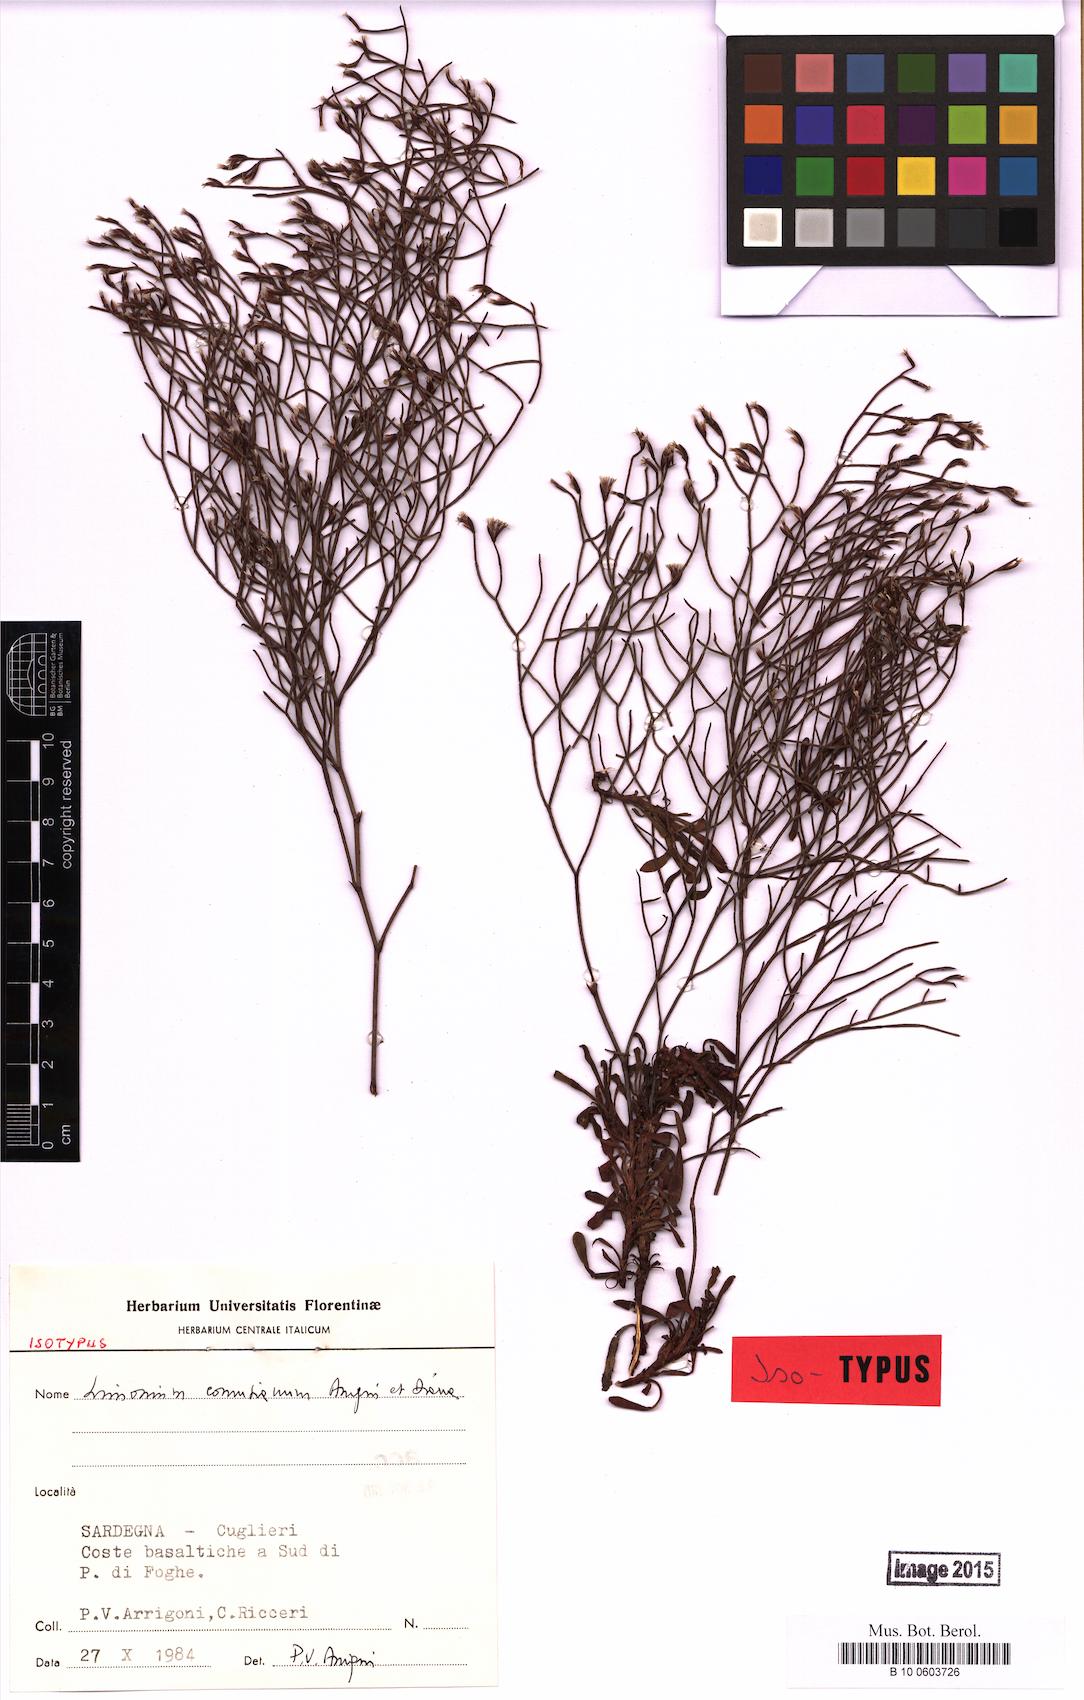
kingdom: Plantae
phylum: Tracheophyta
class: Magnoliopsida
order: Caryophyllales
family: Plumbaginaceae
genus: Limonium
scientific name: Limonium acutifolium
